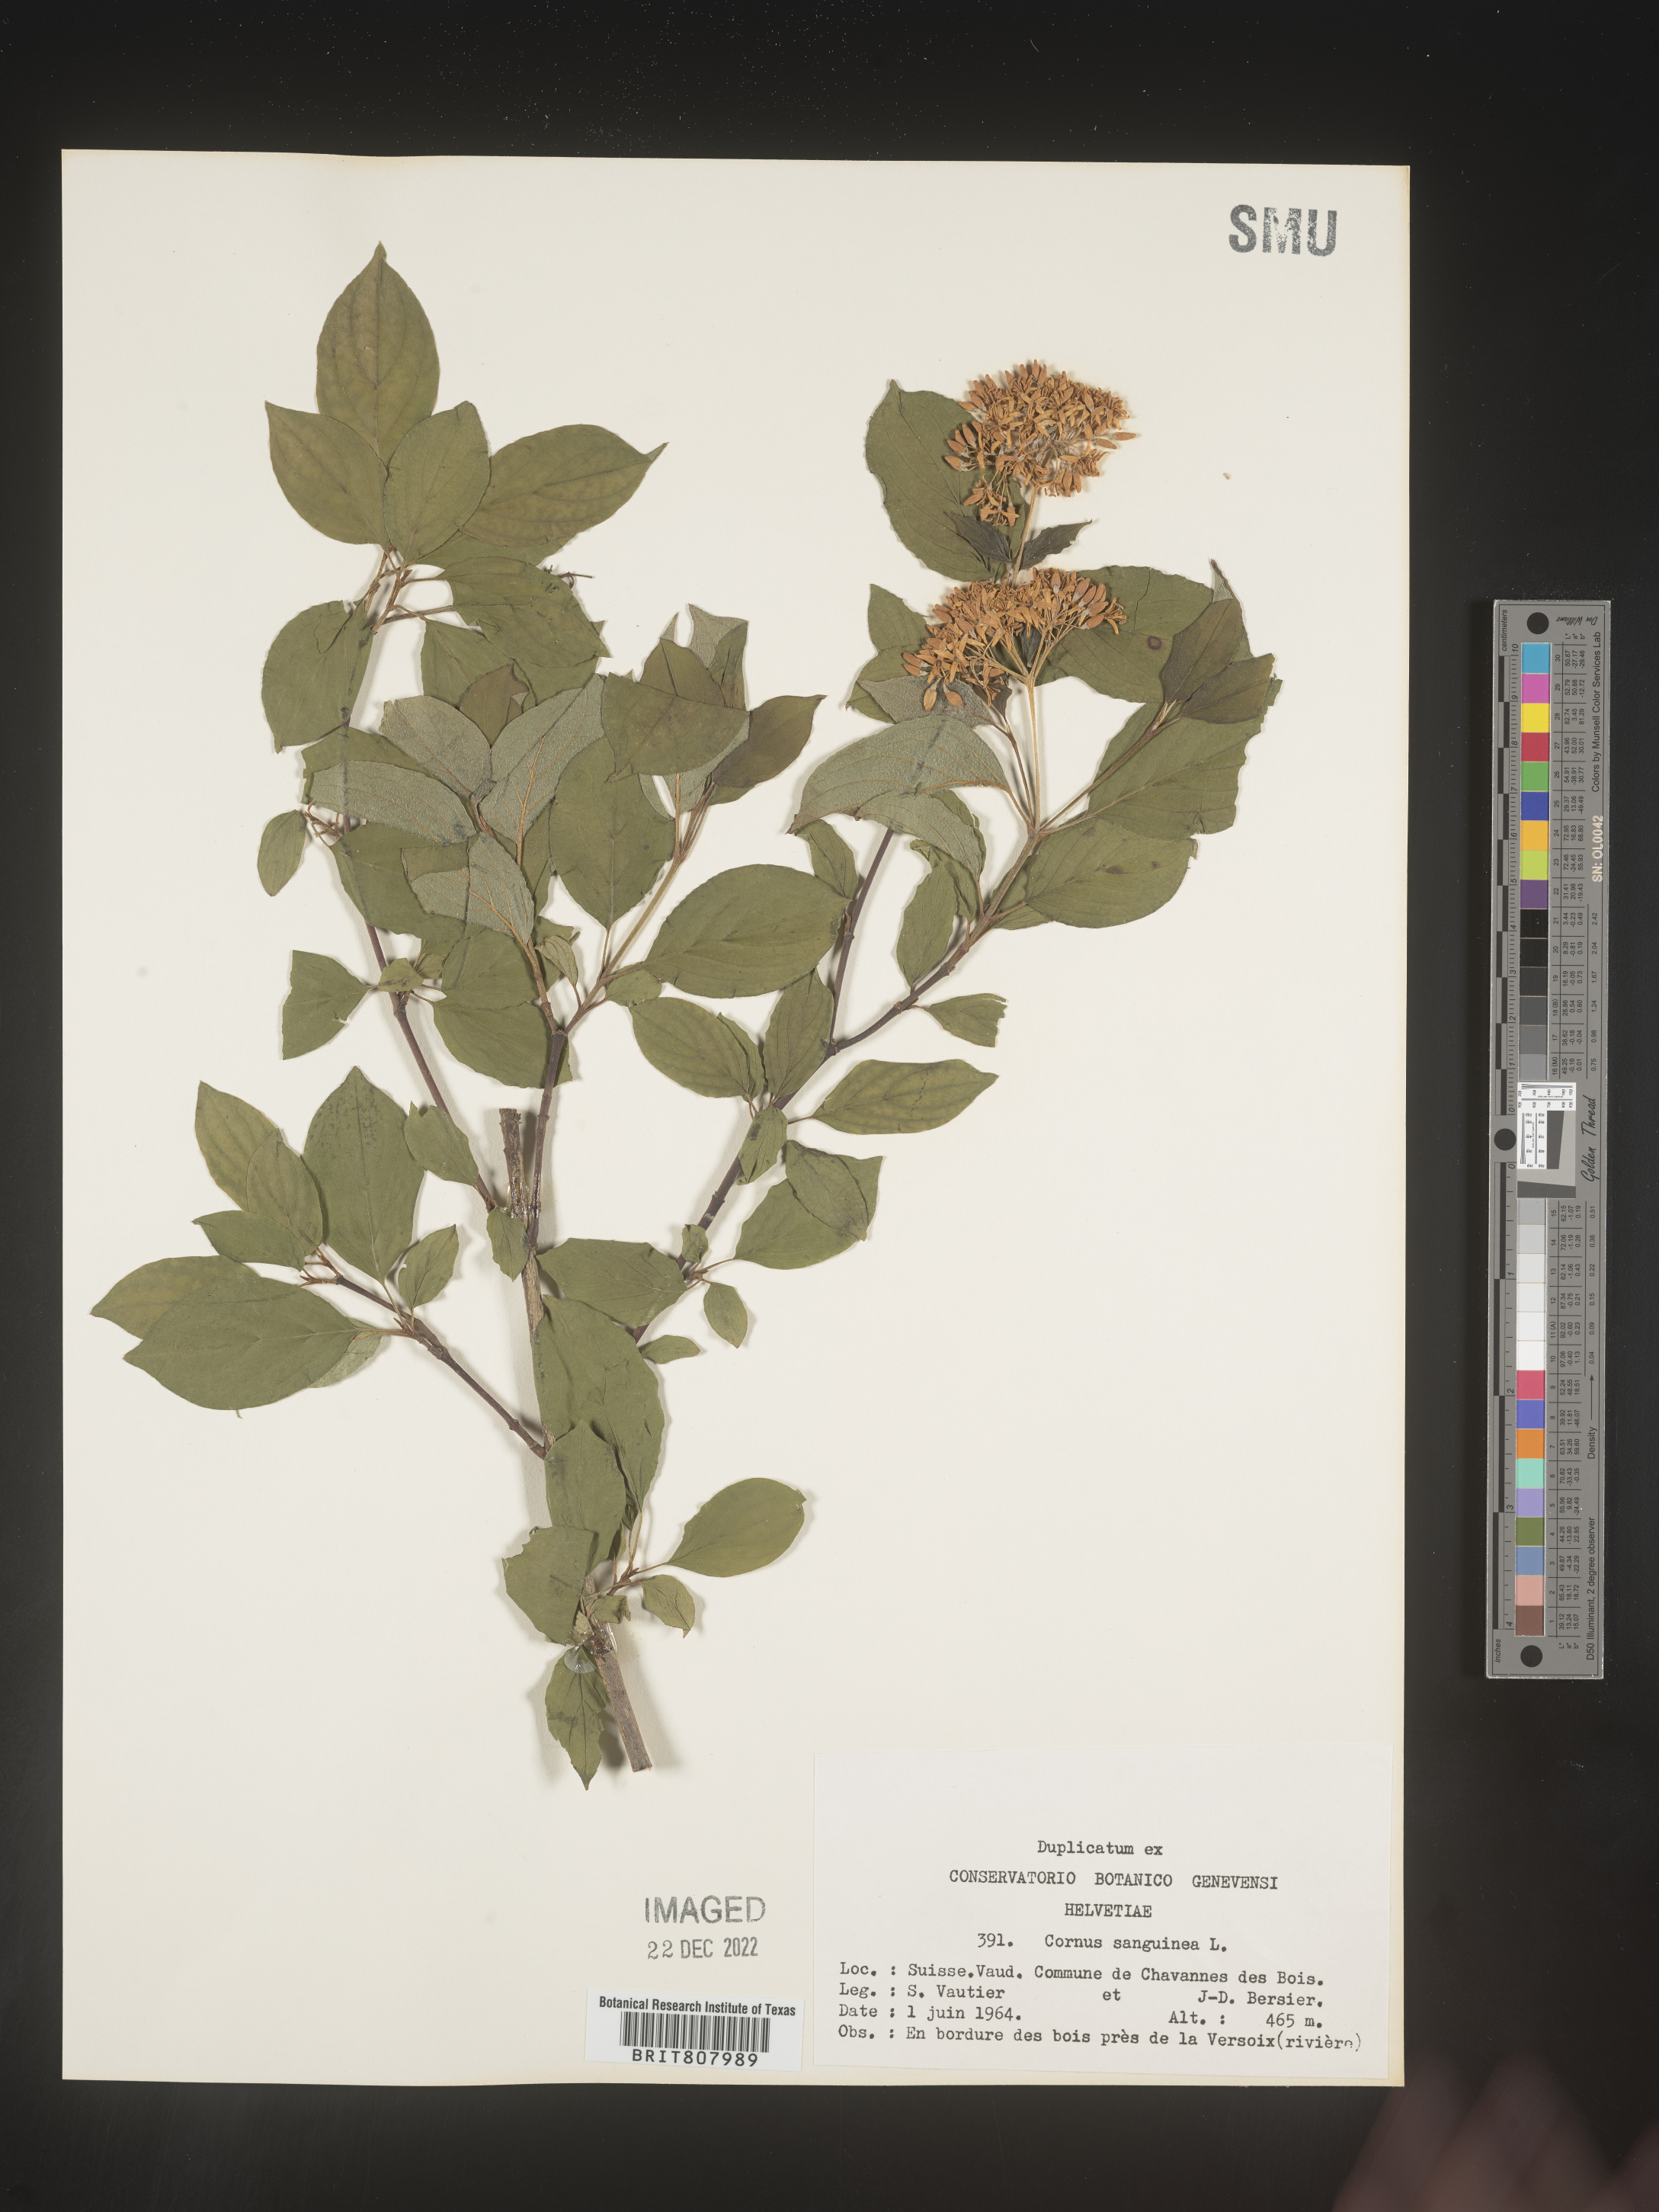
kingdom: Plantae
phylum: Tracheophyta
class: Magnoliopsida
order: Cornales
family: Cornaceae
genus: Cornus
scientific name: Cornus
